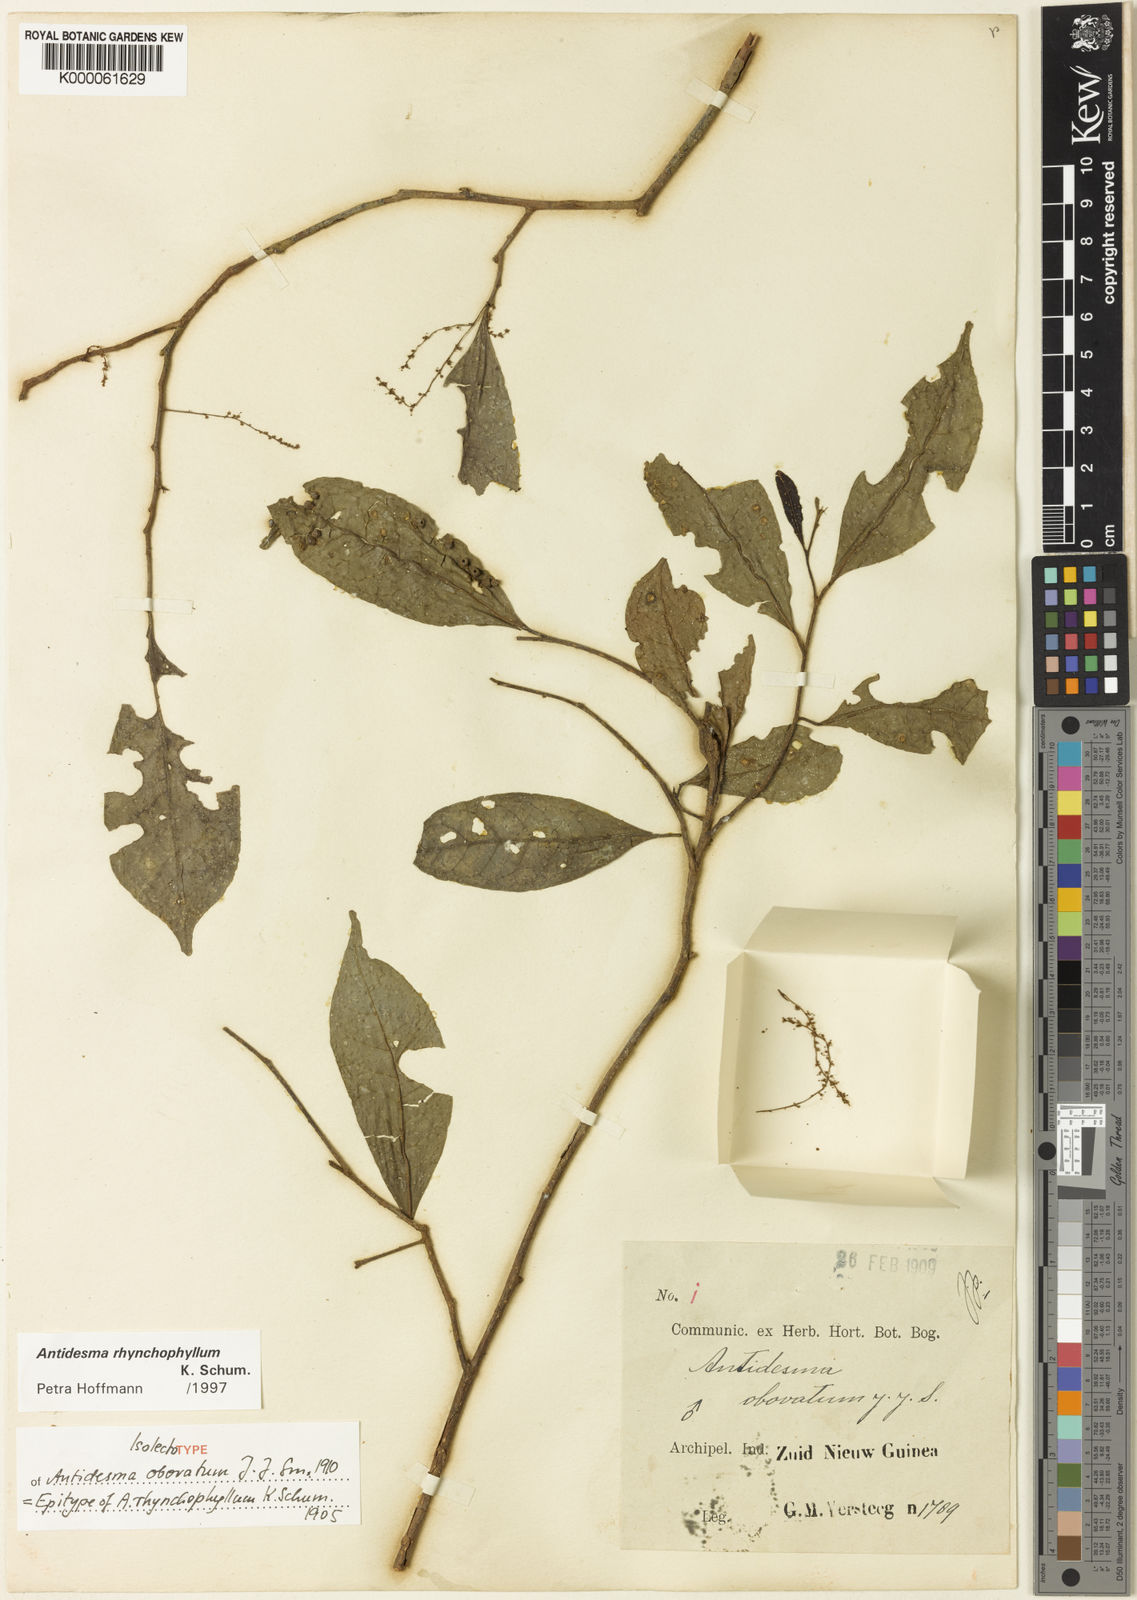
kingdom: Plantae
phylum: Tracheophyta
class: Magnoliopsida
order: Malpighiales
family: Phyllanthaceae
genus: Antidesma
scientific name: Antidesma rhynchophyllum
